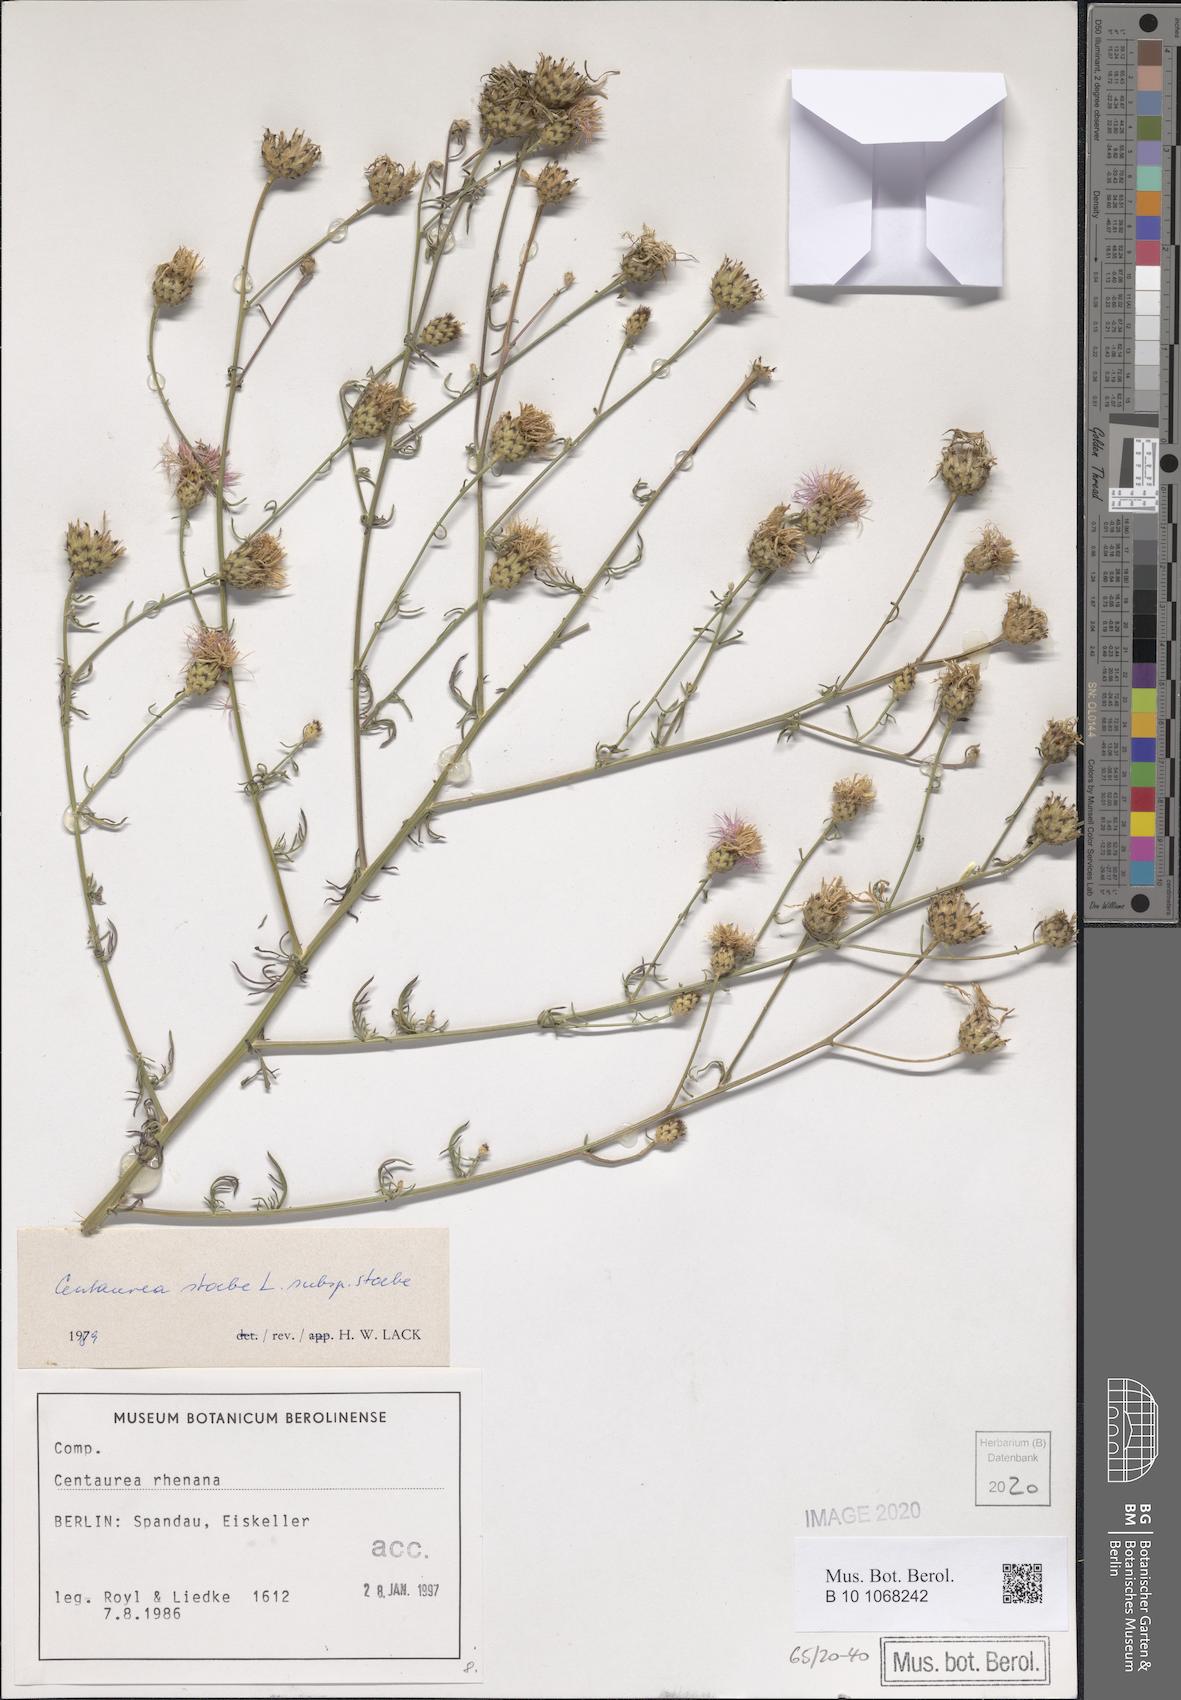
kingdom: Plantae
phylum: Tracheophyta
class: Magnoliopsida
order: Asterales
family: Asteraceae
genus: Centaurea
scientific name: Centaurea stoebe
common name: Spotted knapweed
